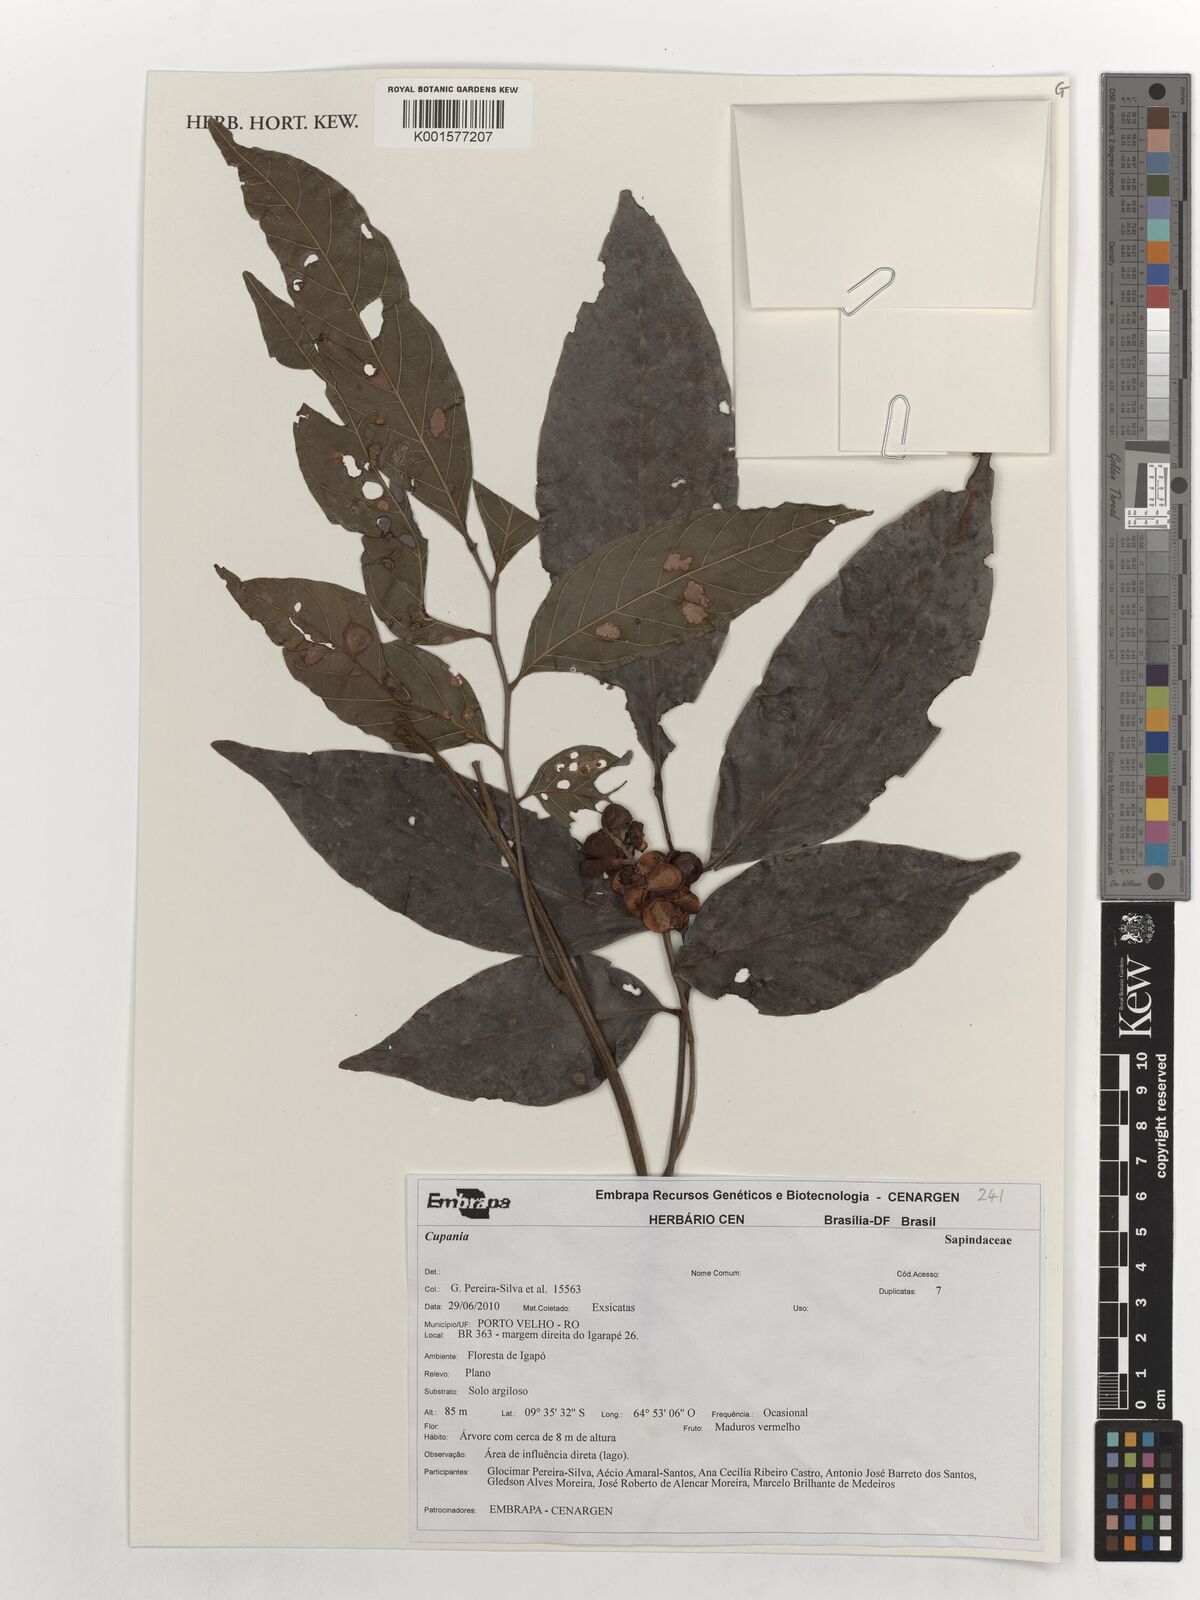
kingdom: Plantae
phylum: Tracheophyta
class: Magnoliopsida
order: Sapindales
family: Sapindaceae
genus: Cupania
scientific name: Cupania
